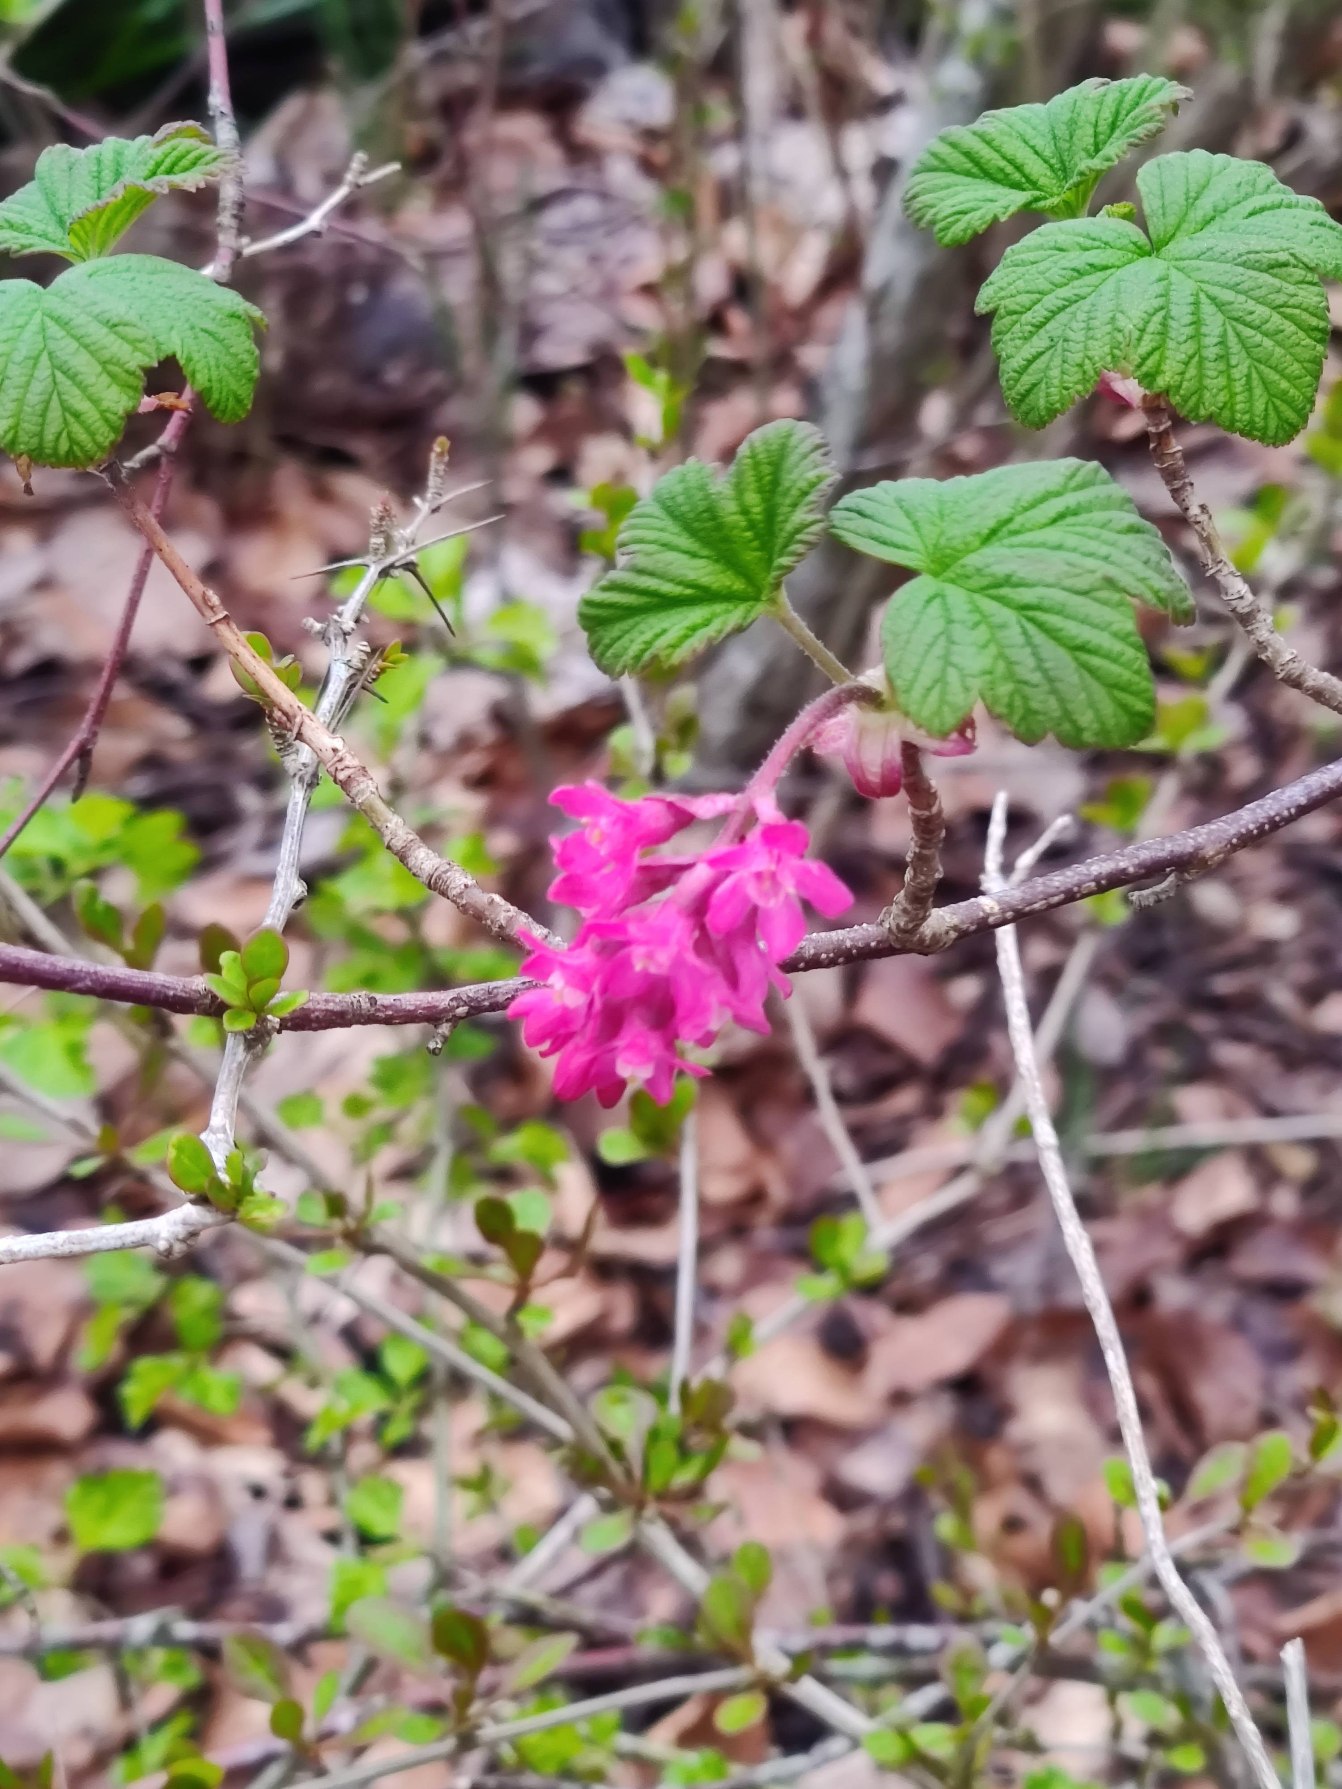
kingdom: Plantae
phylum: Tracheophyta
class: Magnoliopsida
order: Saxifragales
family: Grossulariaceae
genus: Ribes
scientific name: Ribes sanguineum
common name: Blod-ribs
